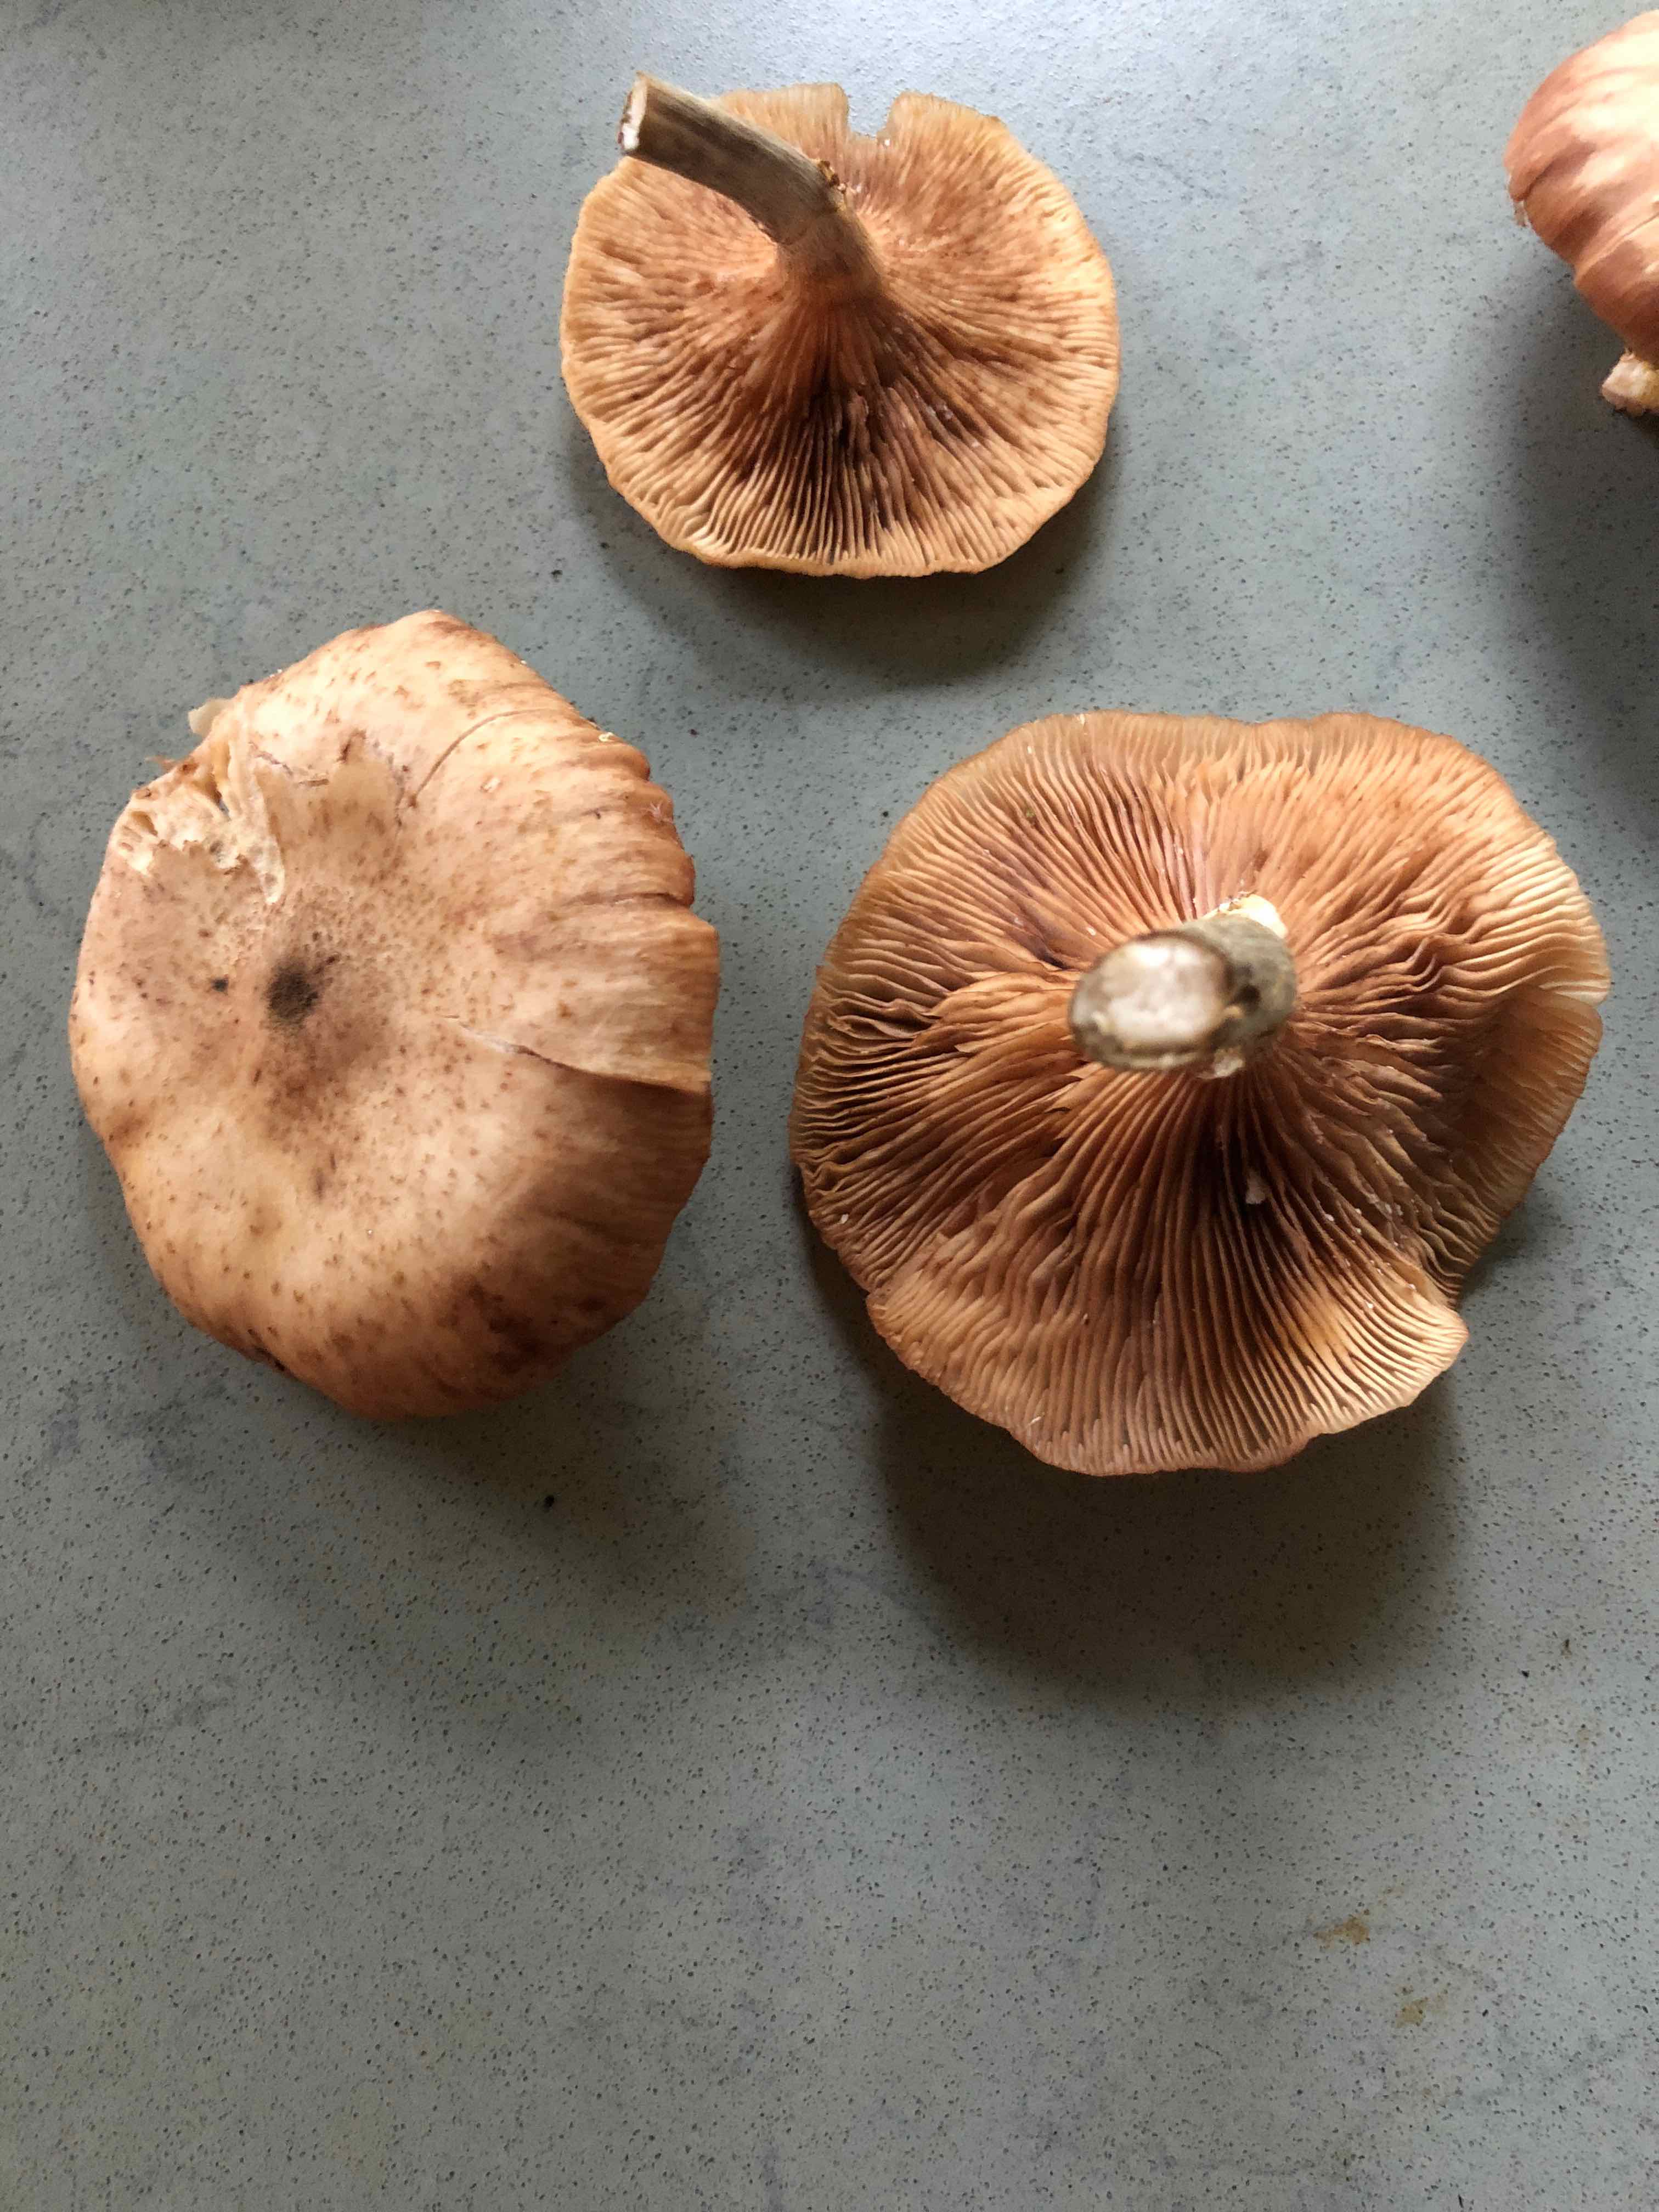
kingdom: Fungi
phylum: Basidiomycota
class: Agaricomycetes
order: Agaricales
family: Physalacriaceae
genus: Armillaria
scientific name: Armillaria
